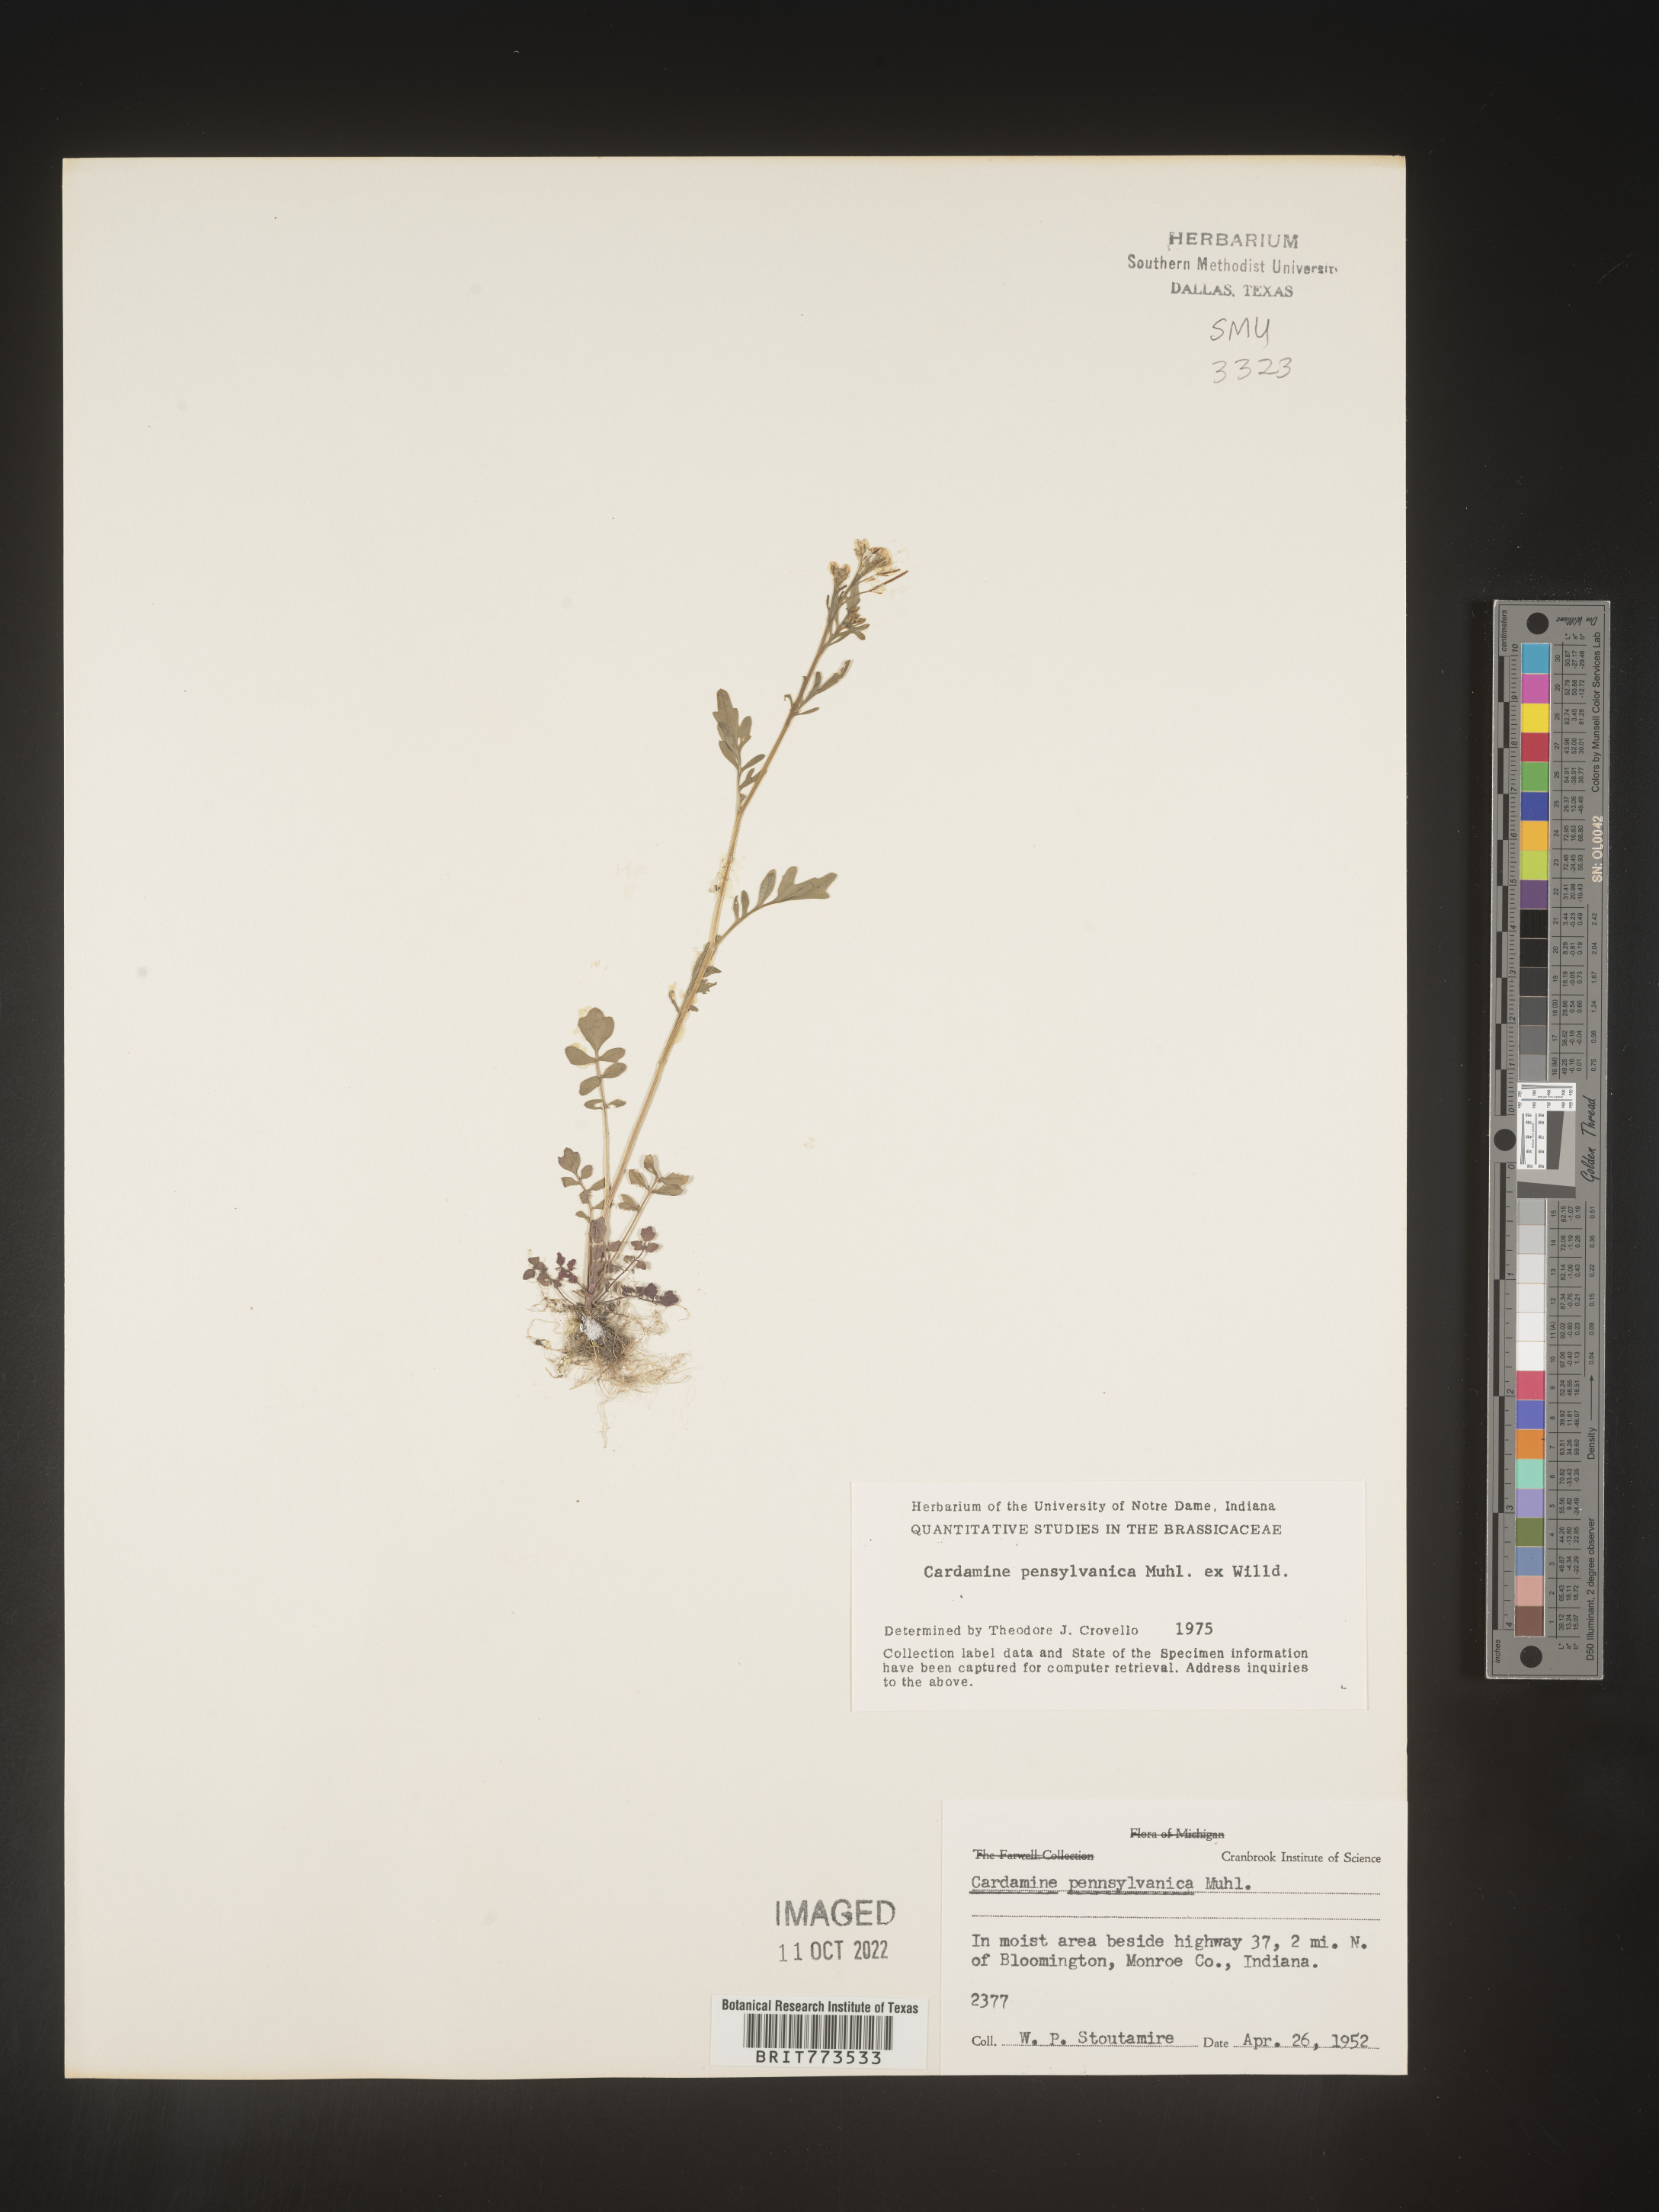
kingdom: Plantae
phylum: Tracheophyta
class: Magnoliopsida
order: Brassicales
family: Brassicaceae
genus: Cardamine
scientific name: Cardamine pensylvanica
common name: Pennsylvania bittercress
